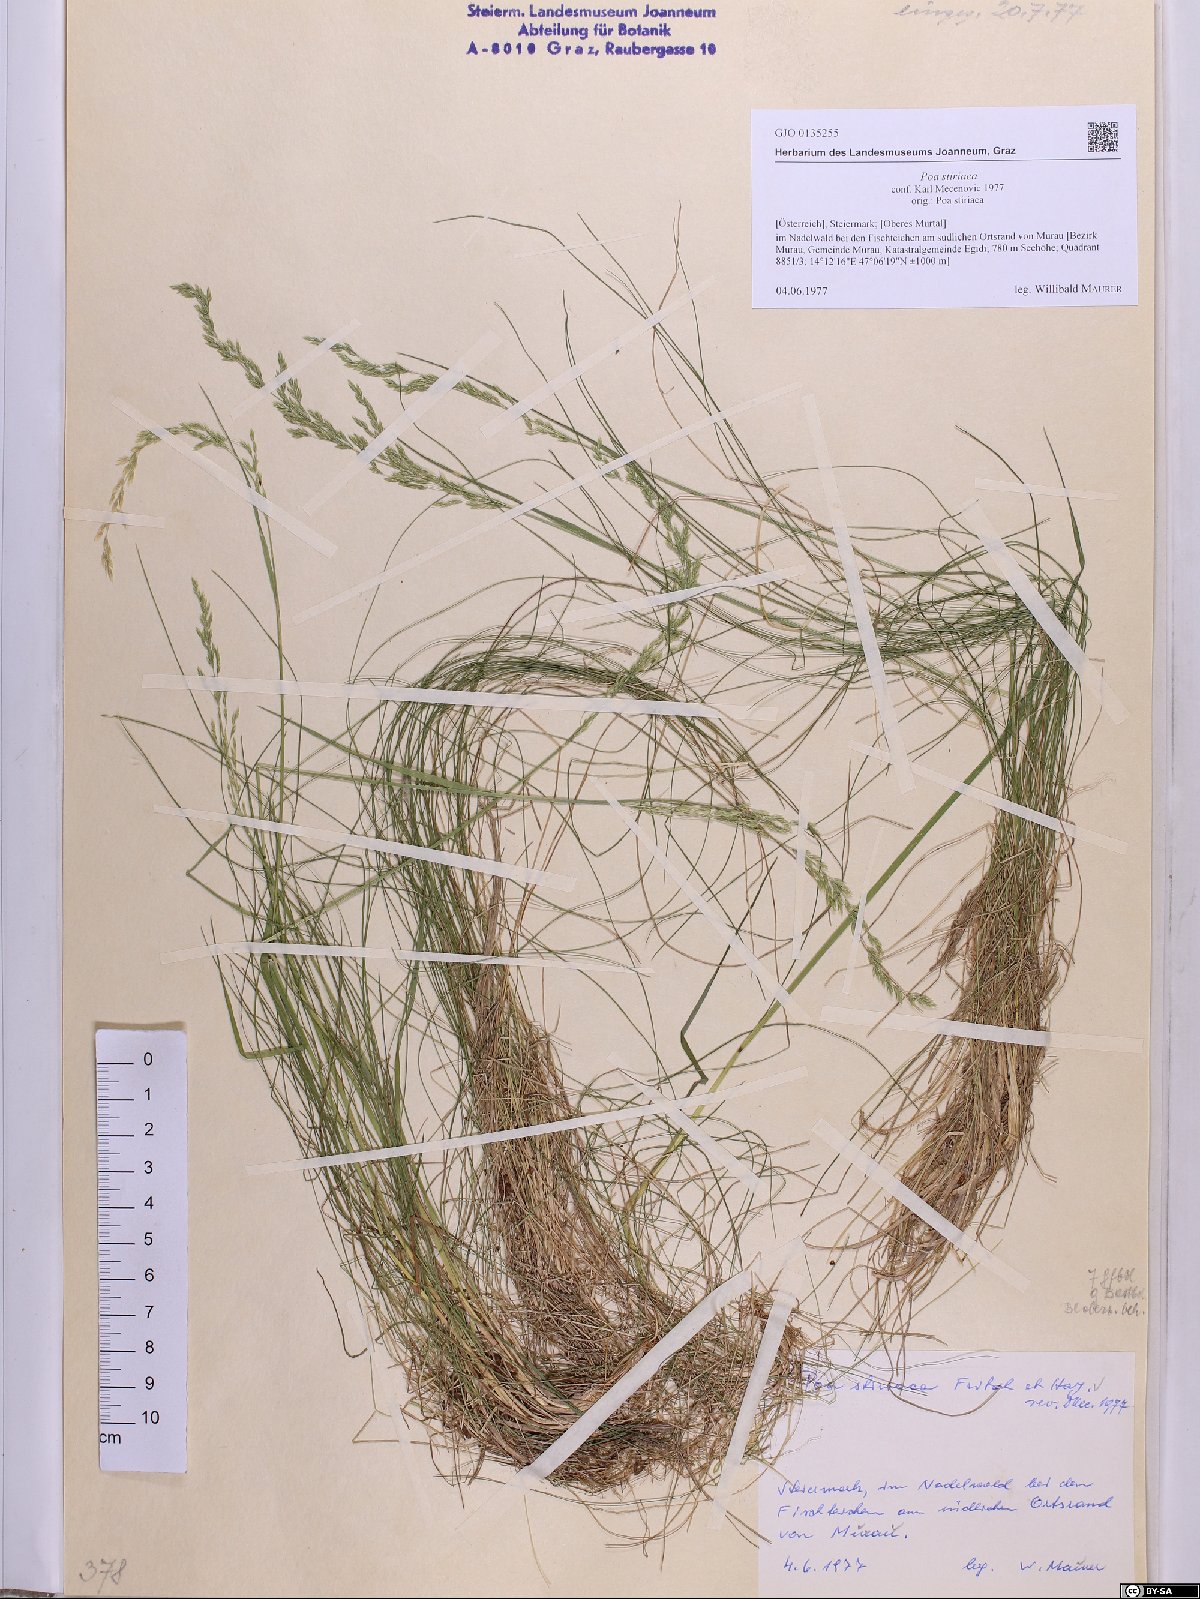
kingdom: Plantae
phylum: Tracheophyta
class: Liliopsida
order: Poales
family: Poaceae
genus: Poa
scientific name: Poa stiriaca
